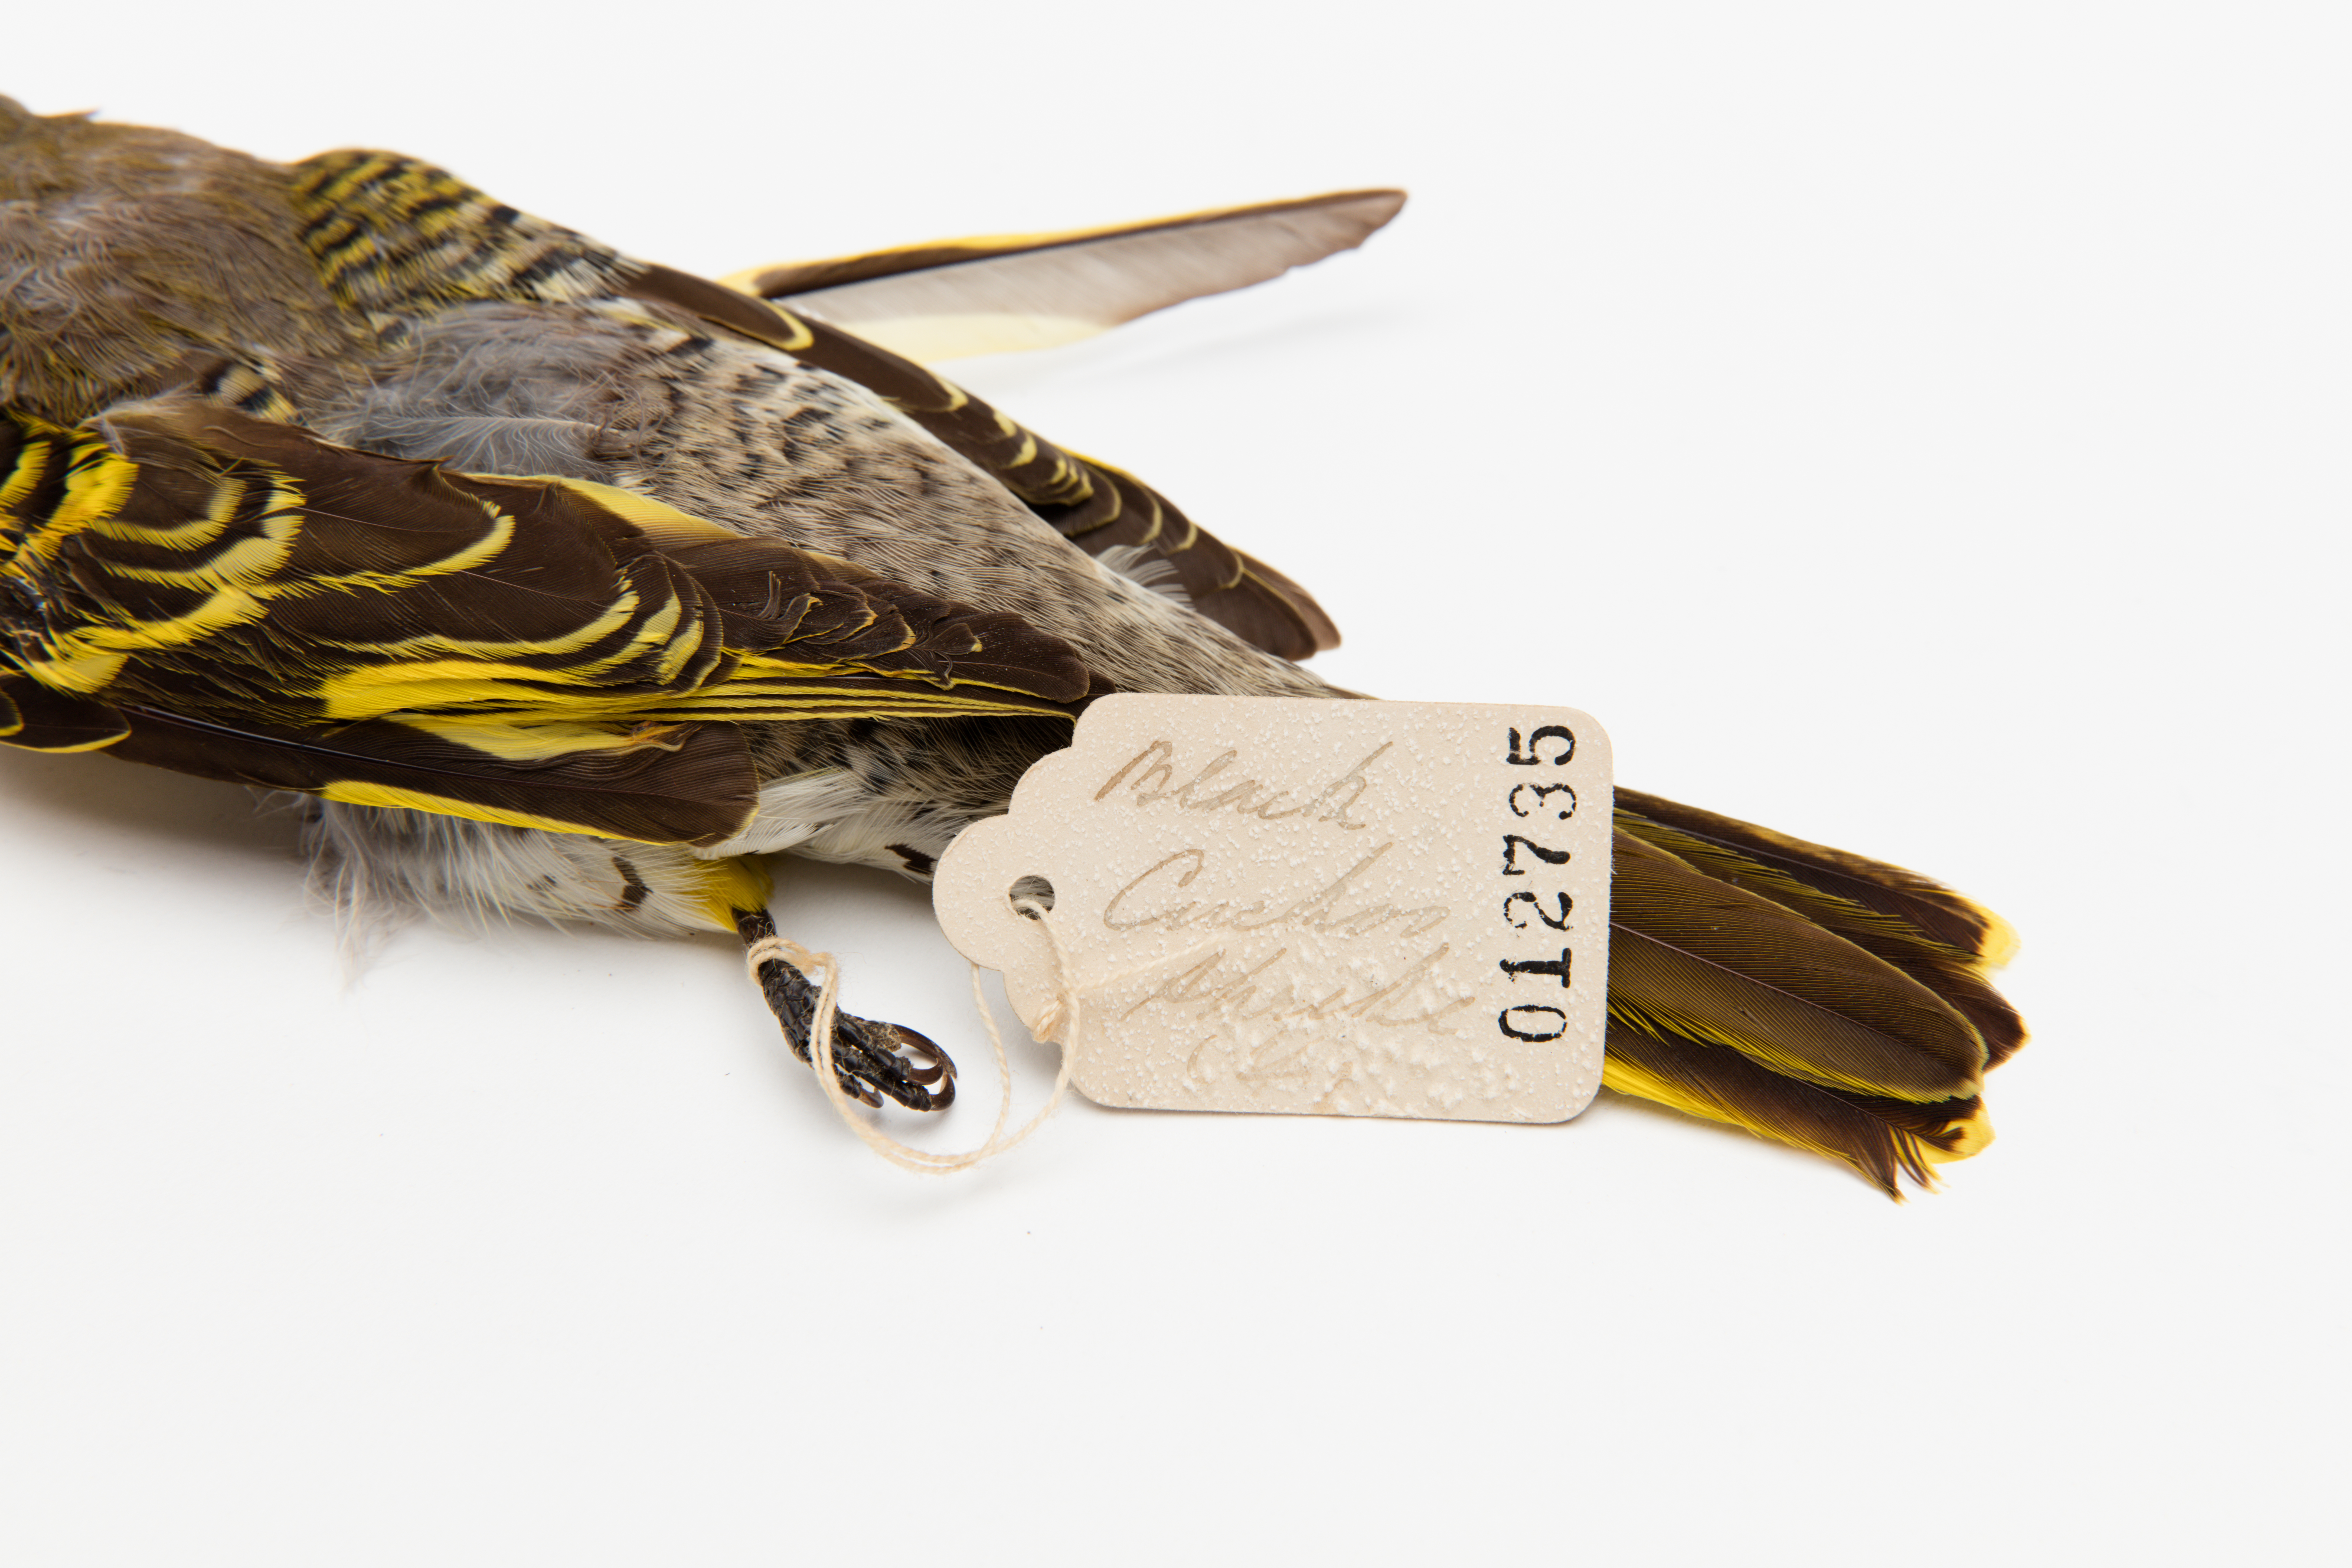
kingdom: Animalia
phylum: Chordata
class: Aves
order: Passeriformes
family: Campephagidae
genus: Campephaga
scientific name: Campephaga flava
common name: Black cuckooshrike
